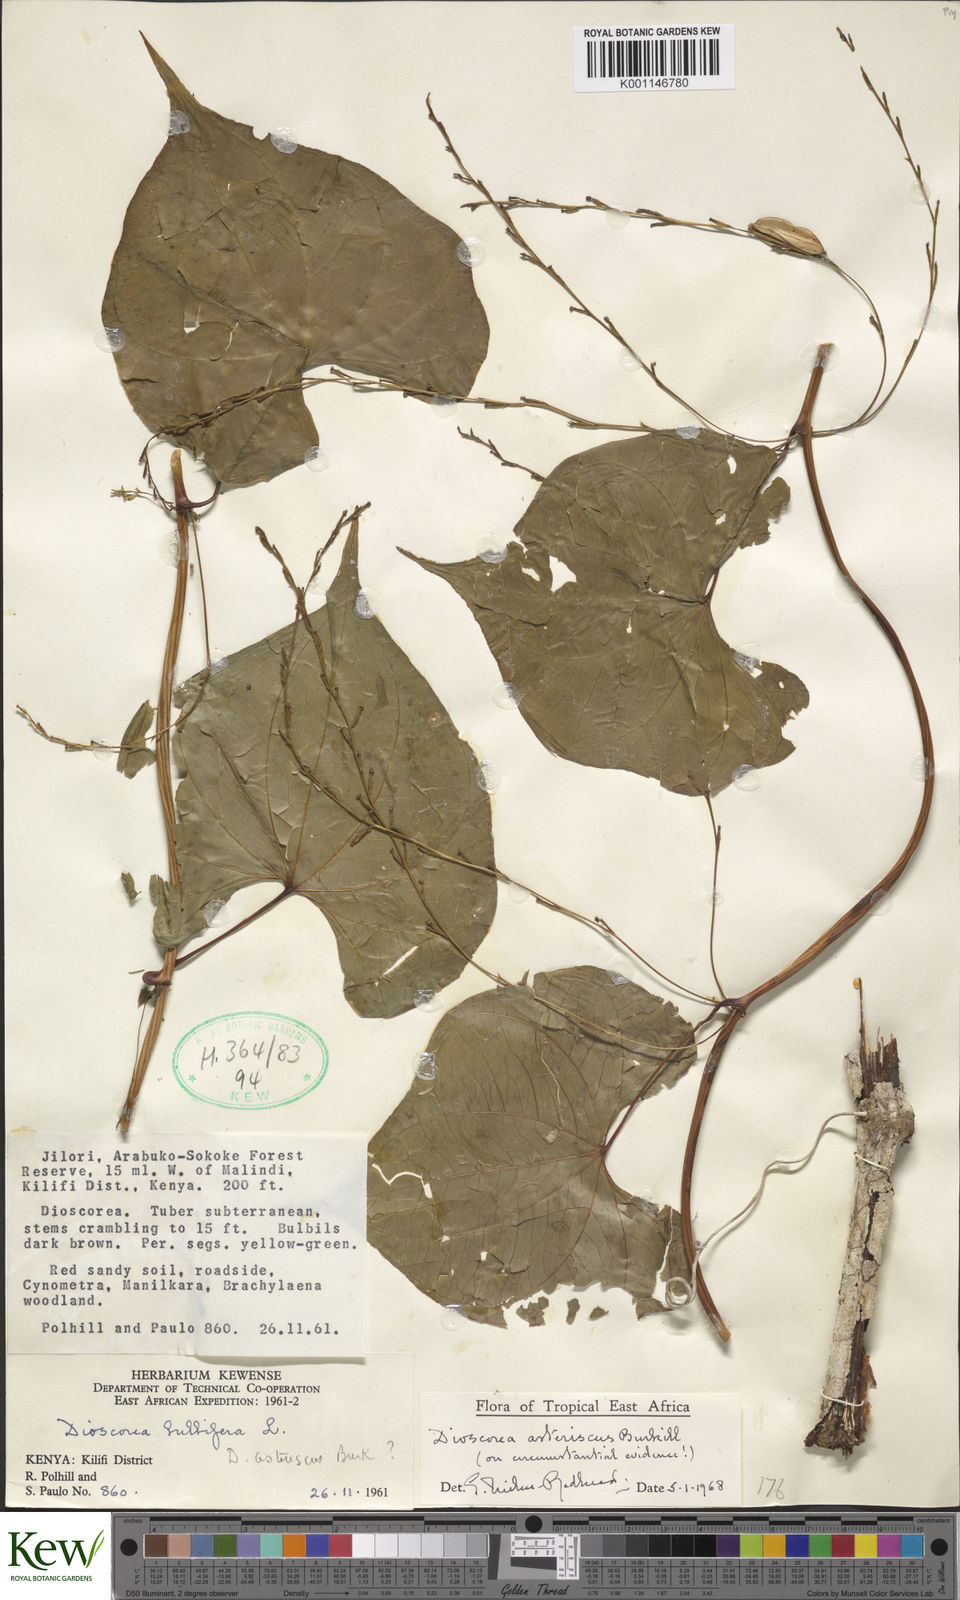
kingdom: Plantae
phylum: Tracheophyta
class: Liliopsida
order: Dioscoreales
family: Dioscoreaceae
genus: Dioscorea
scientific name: Dioscorea asteriscus
